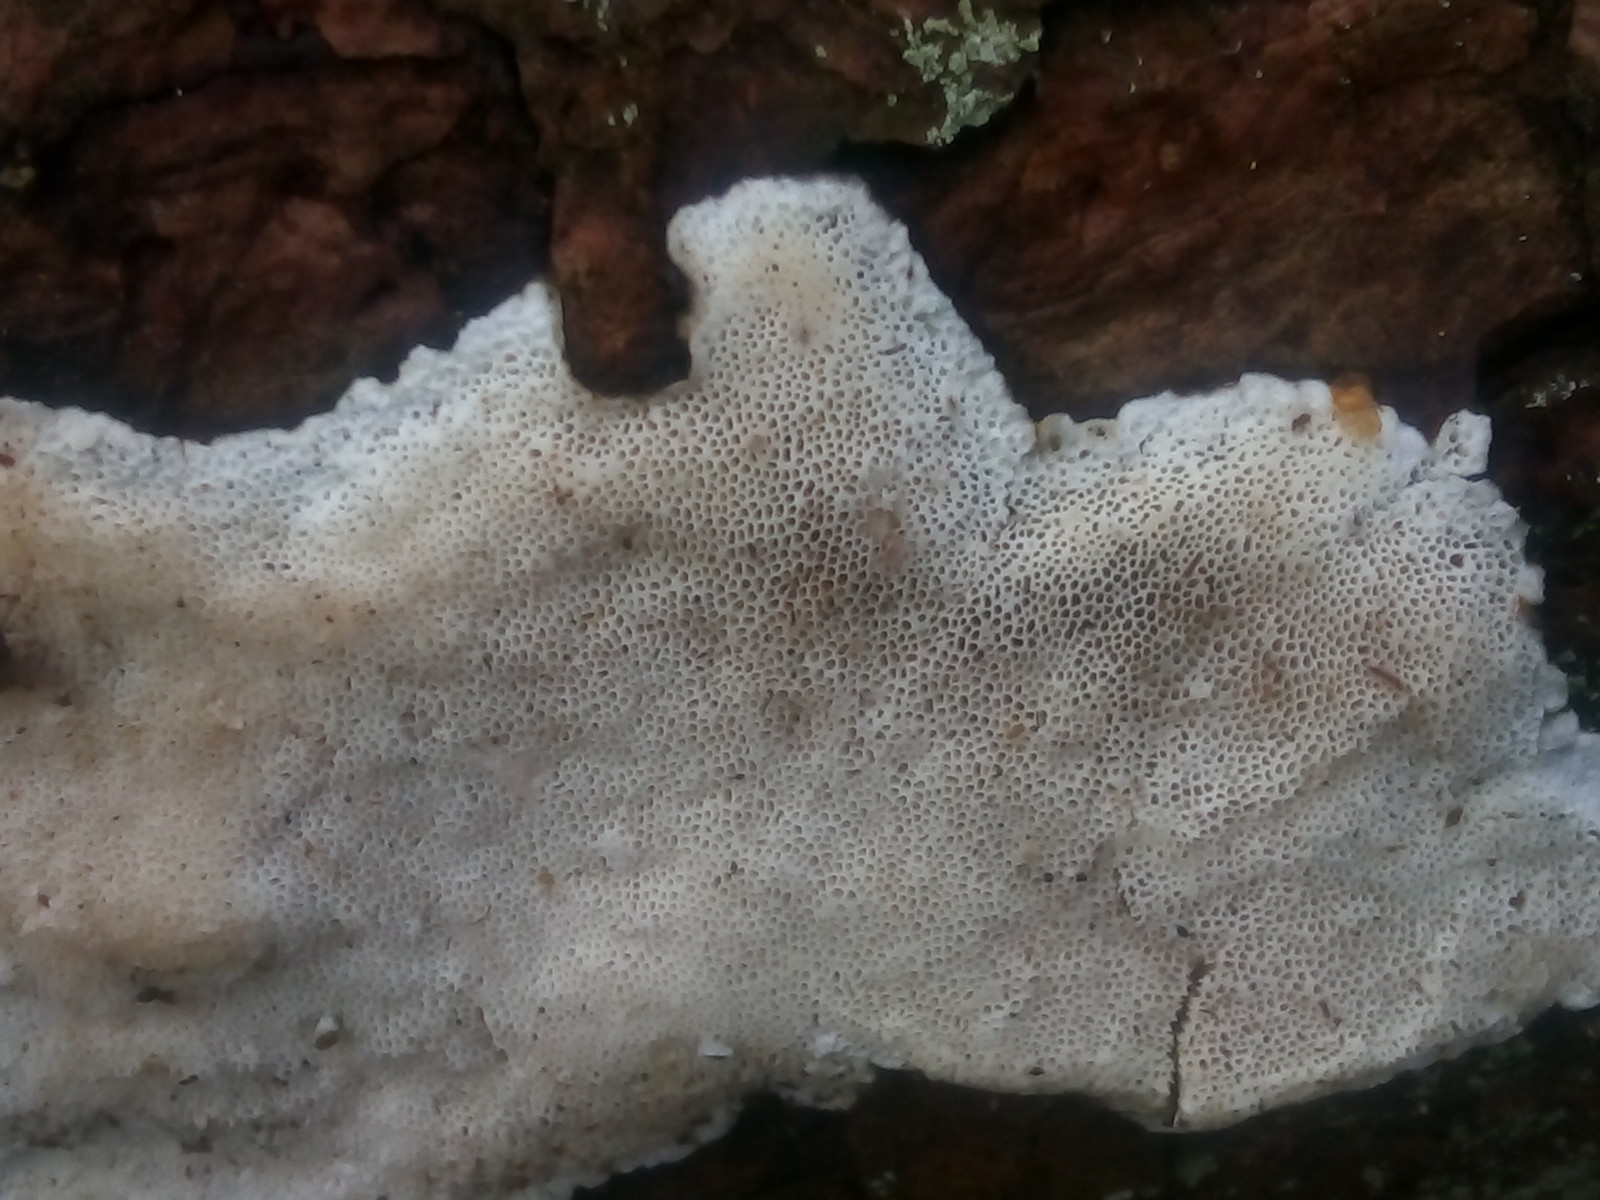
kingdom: Fungi
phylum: Basidiomycota
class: Agaricomycetes
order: Polyporales
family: Gelatoporiaceae
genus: Cinereomyces
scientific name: Cinereomyces lindbladii
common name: almindelig gråporesvamp
